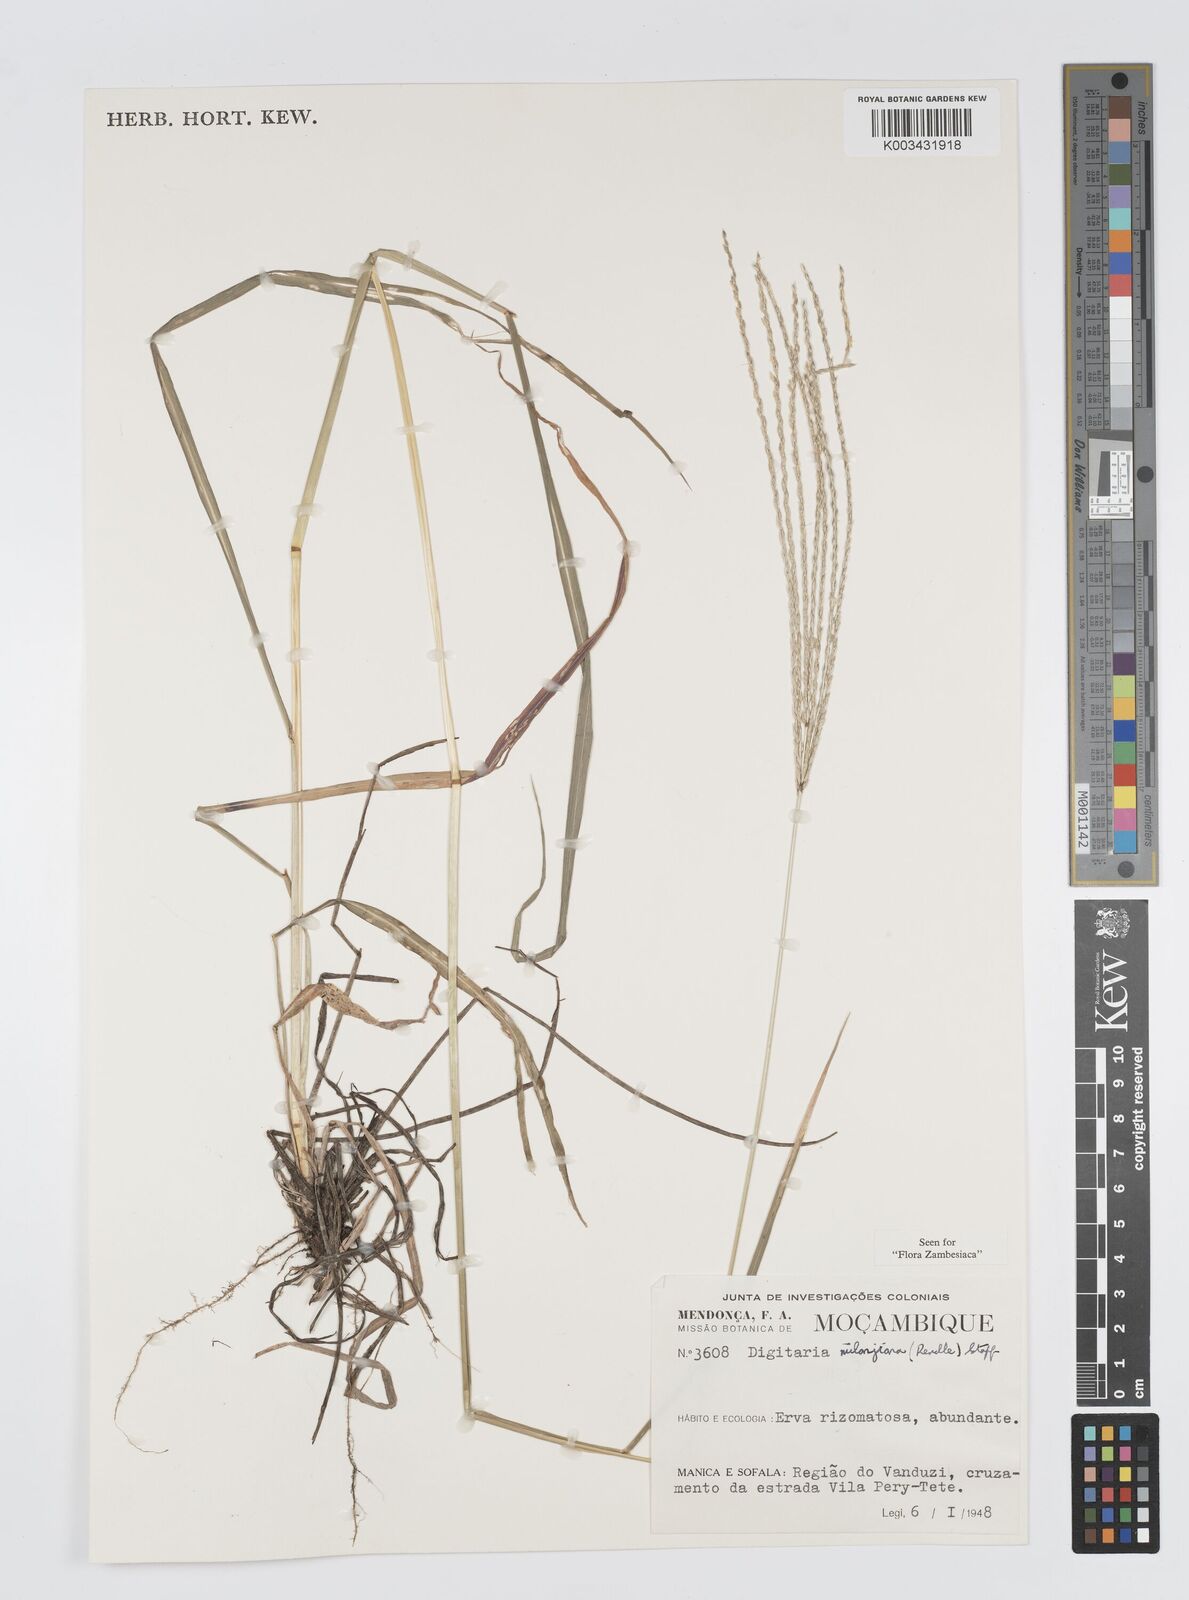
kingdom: Plantae
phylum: Tracheophyta
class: Liliopsida
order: Poales
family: Poaceae
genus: Digitaria
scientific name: Digitaria milanjiana
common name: Madagascar crabgrass
